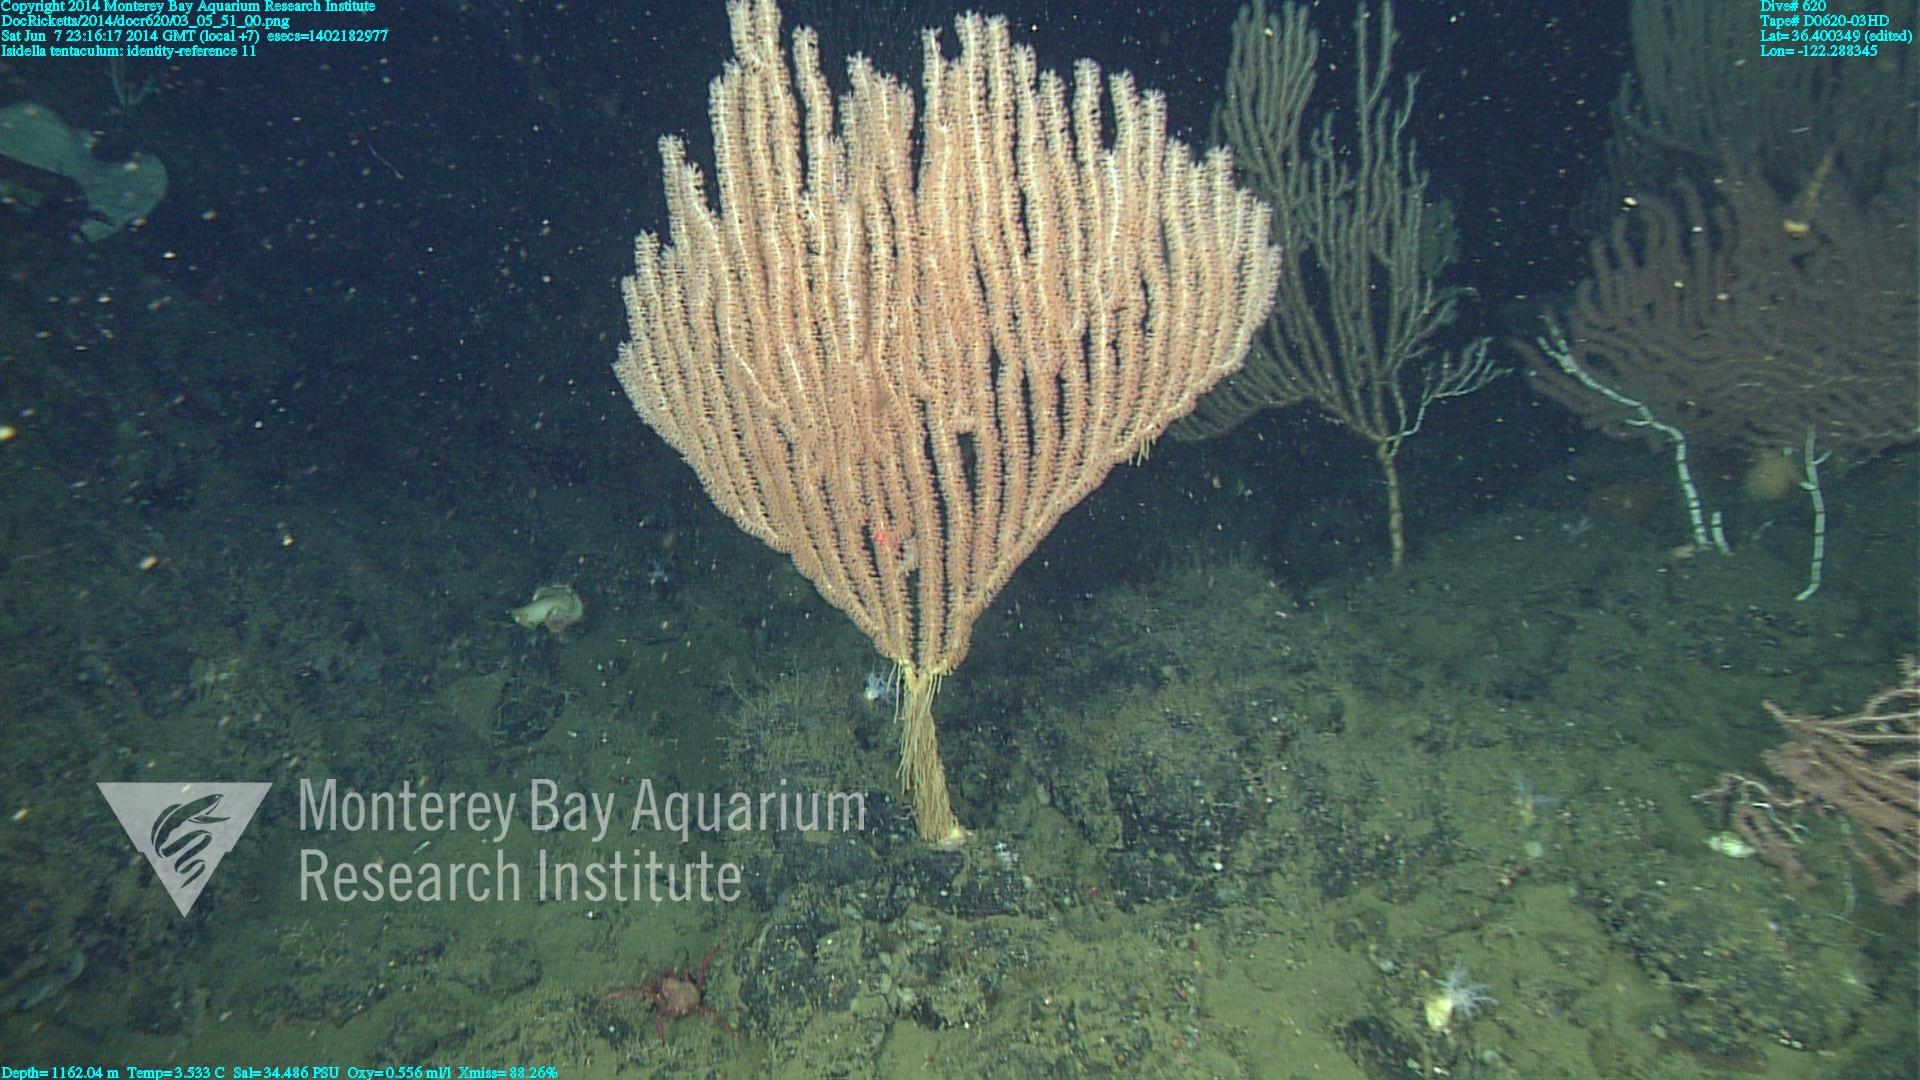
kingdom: Animalia
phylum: Cnidaria
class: Anthozoa
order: Scleralcyonacea
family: Keratoisididae
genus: Isidella
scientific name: Isidella tentaculum
